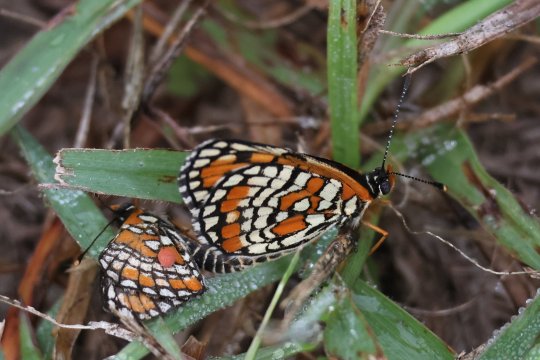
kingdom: Animalia
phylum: Arthropoda
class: Insecta
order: Lepidoptera
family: Nymphalidae
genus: Chlosyne
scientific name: Chlosyne definita
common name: Definite Patch
